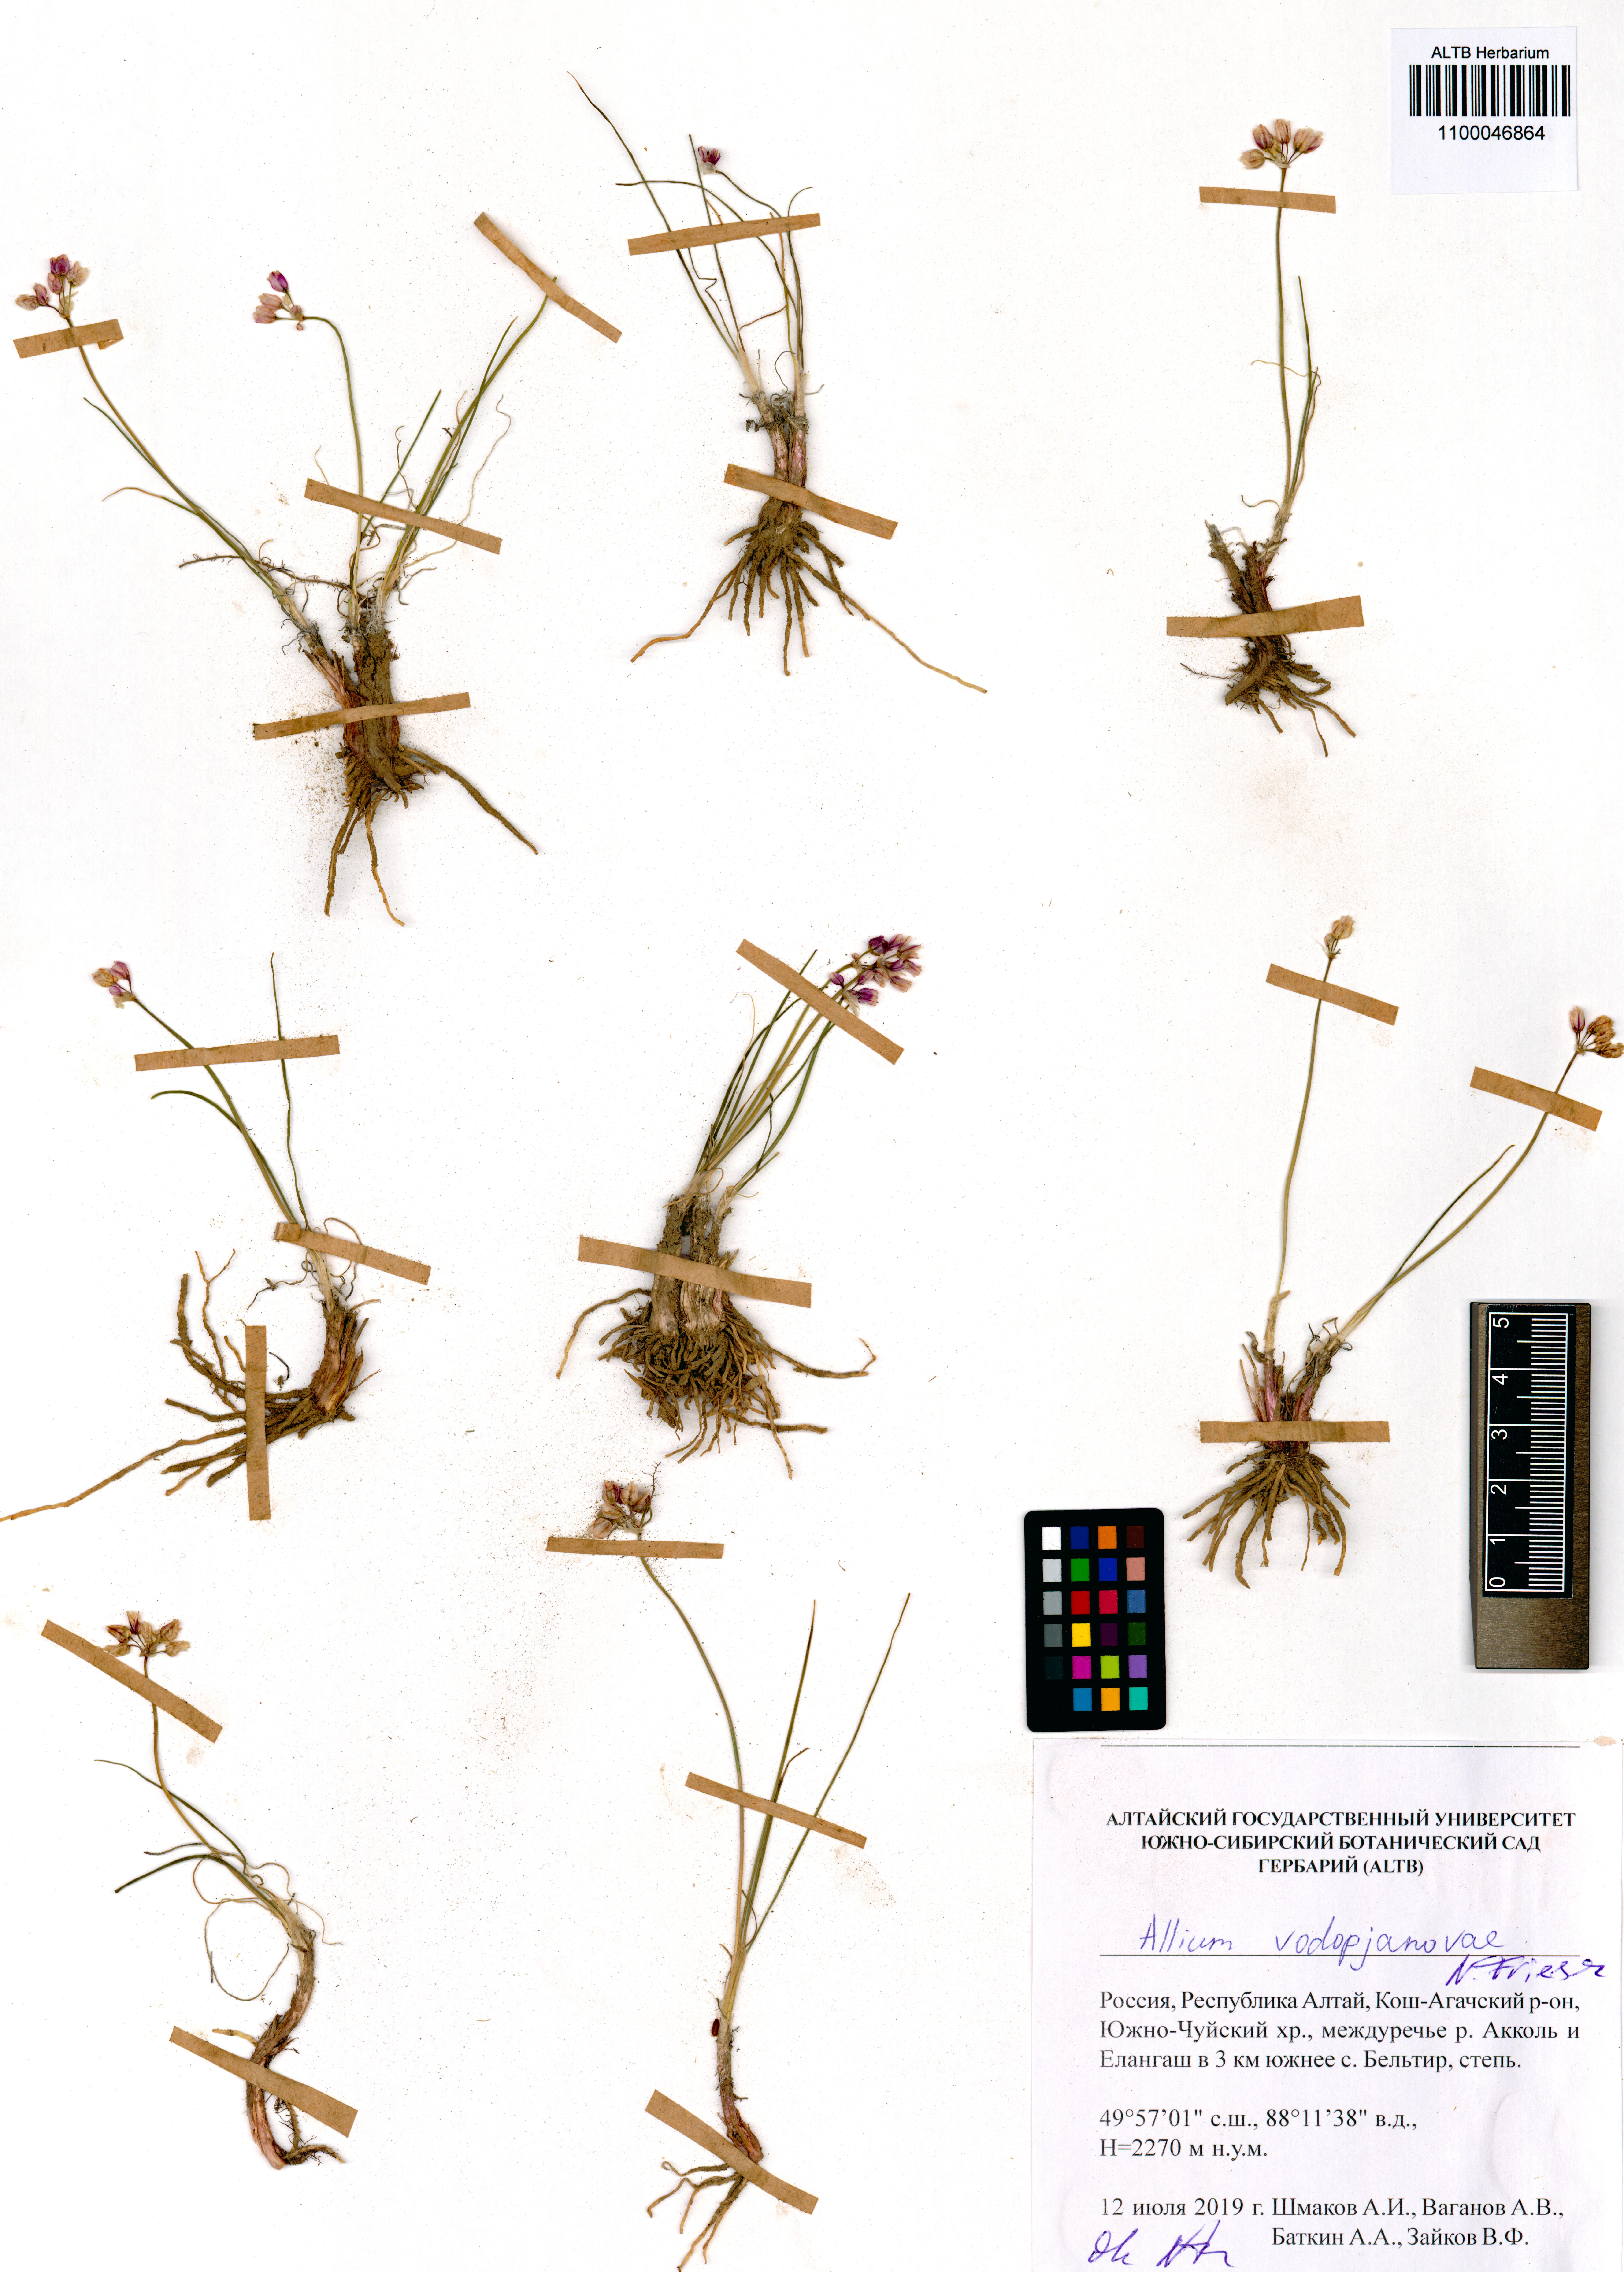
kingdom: Plantae
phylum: Tracheophyta
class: Liliopsida
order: Asparagales
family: Amaryllidaceae
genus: Allium
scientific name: Allium vodopjanovae
